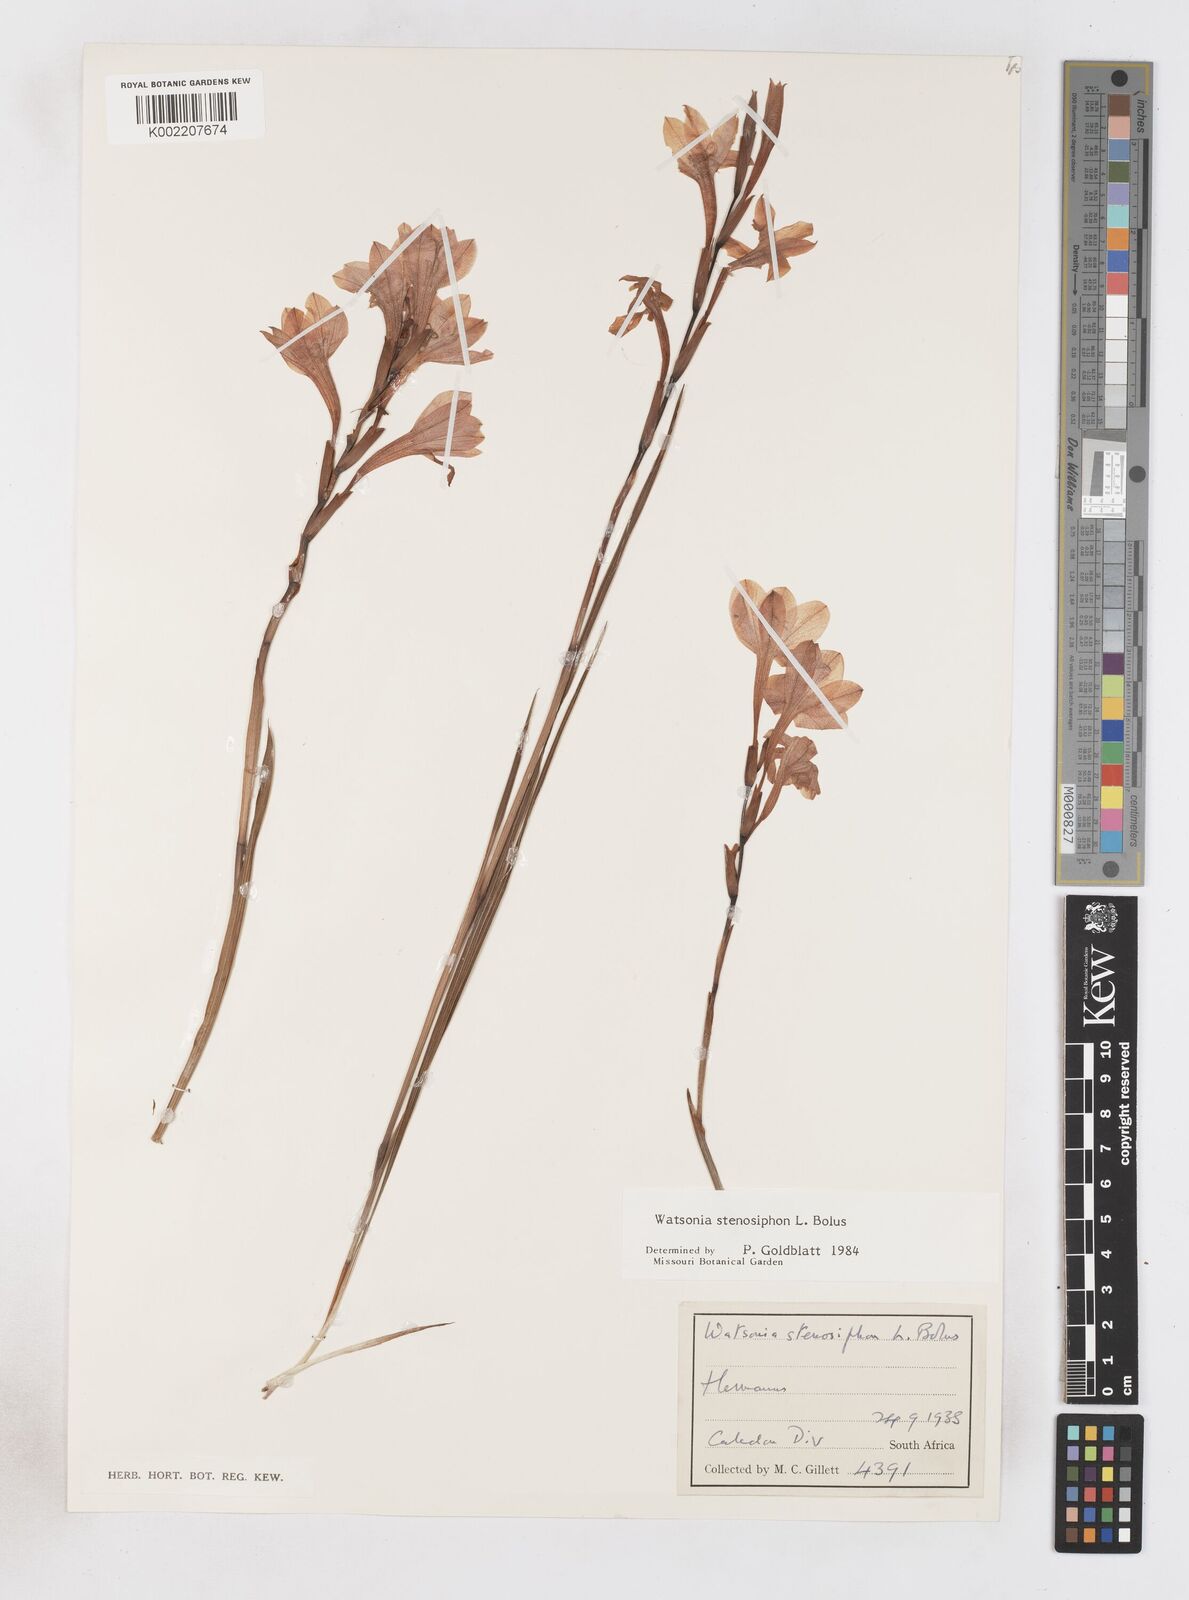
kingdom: Plantae
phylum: Tracheophyta
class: Liliopsida
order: Asparagales
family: Iridaceae
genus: Watsonia
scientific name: Watsonia stenosiphon
